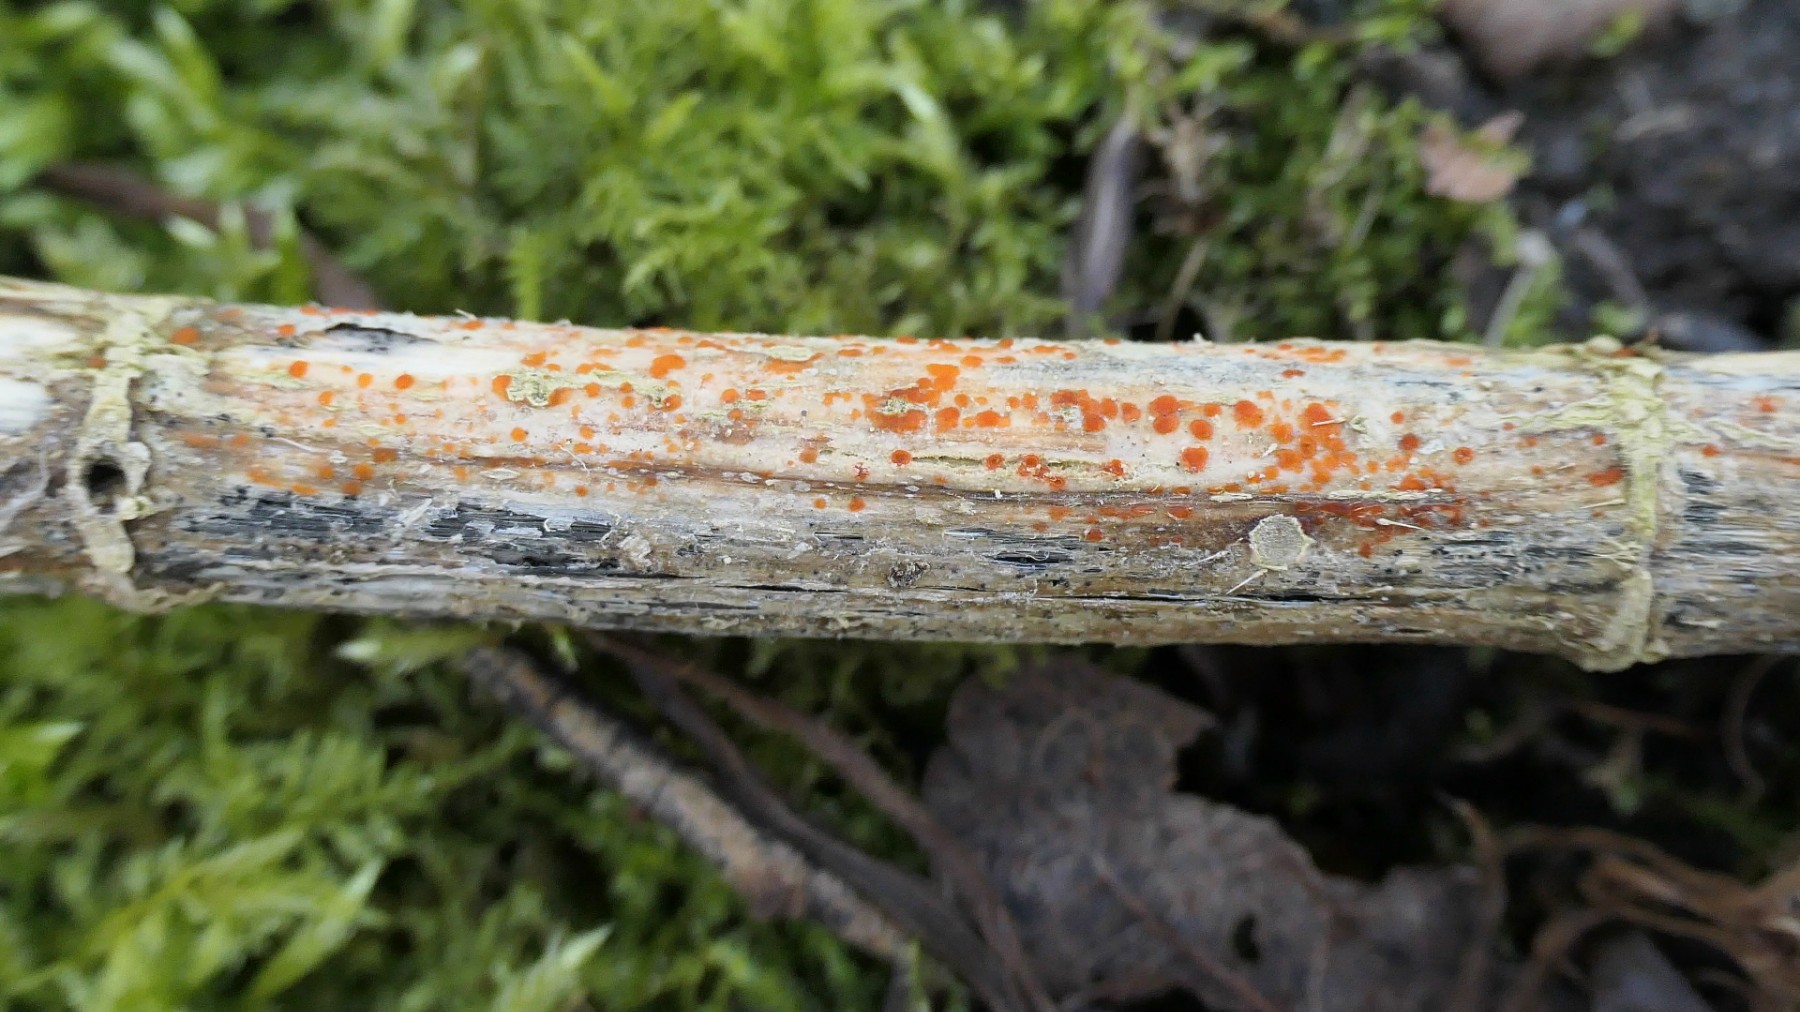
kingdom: Fungi
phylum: Ascomycota
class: Leotiomycetes
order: Helotiales
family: Calloriaceae
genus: Calloria
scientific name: Calloria urticae
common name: nælde-orangeskive
